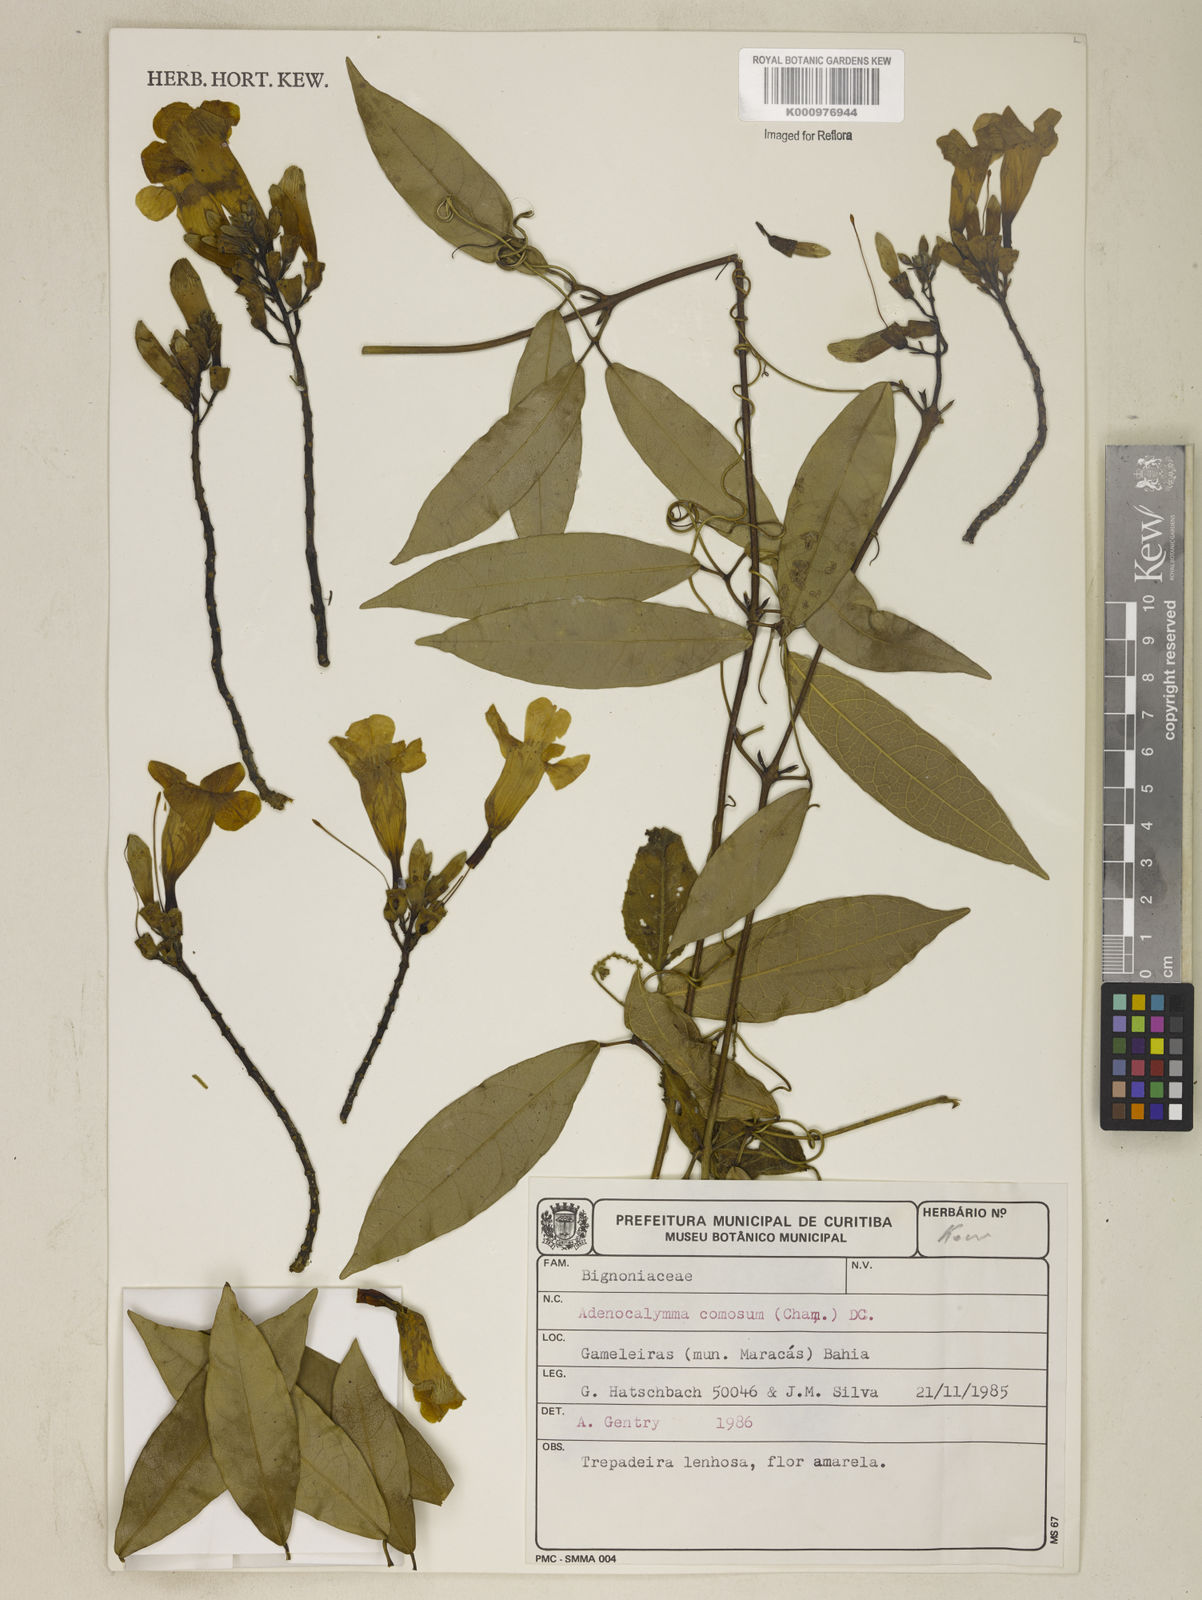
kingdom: Plantae
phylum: Tracheophyta
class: Magnoliopsida
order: Lamiales
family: Bignoniaceae
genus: Adenocalymma
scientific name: Adenocalymma acutissimum
